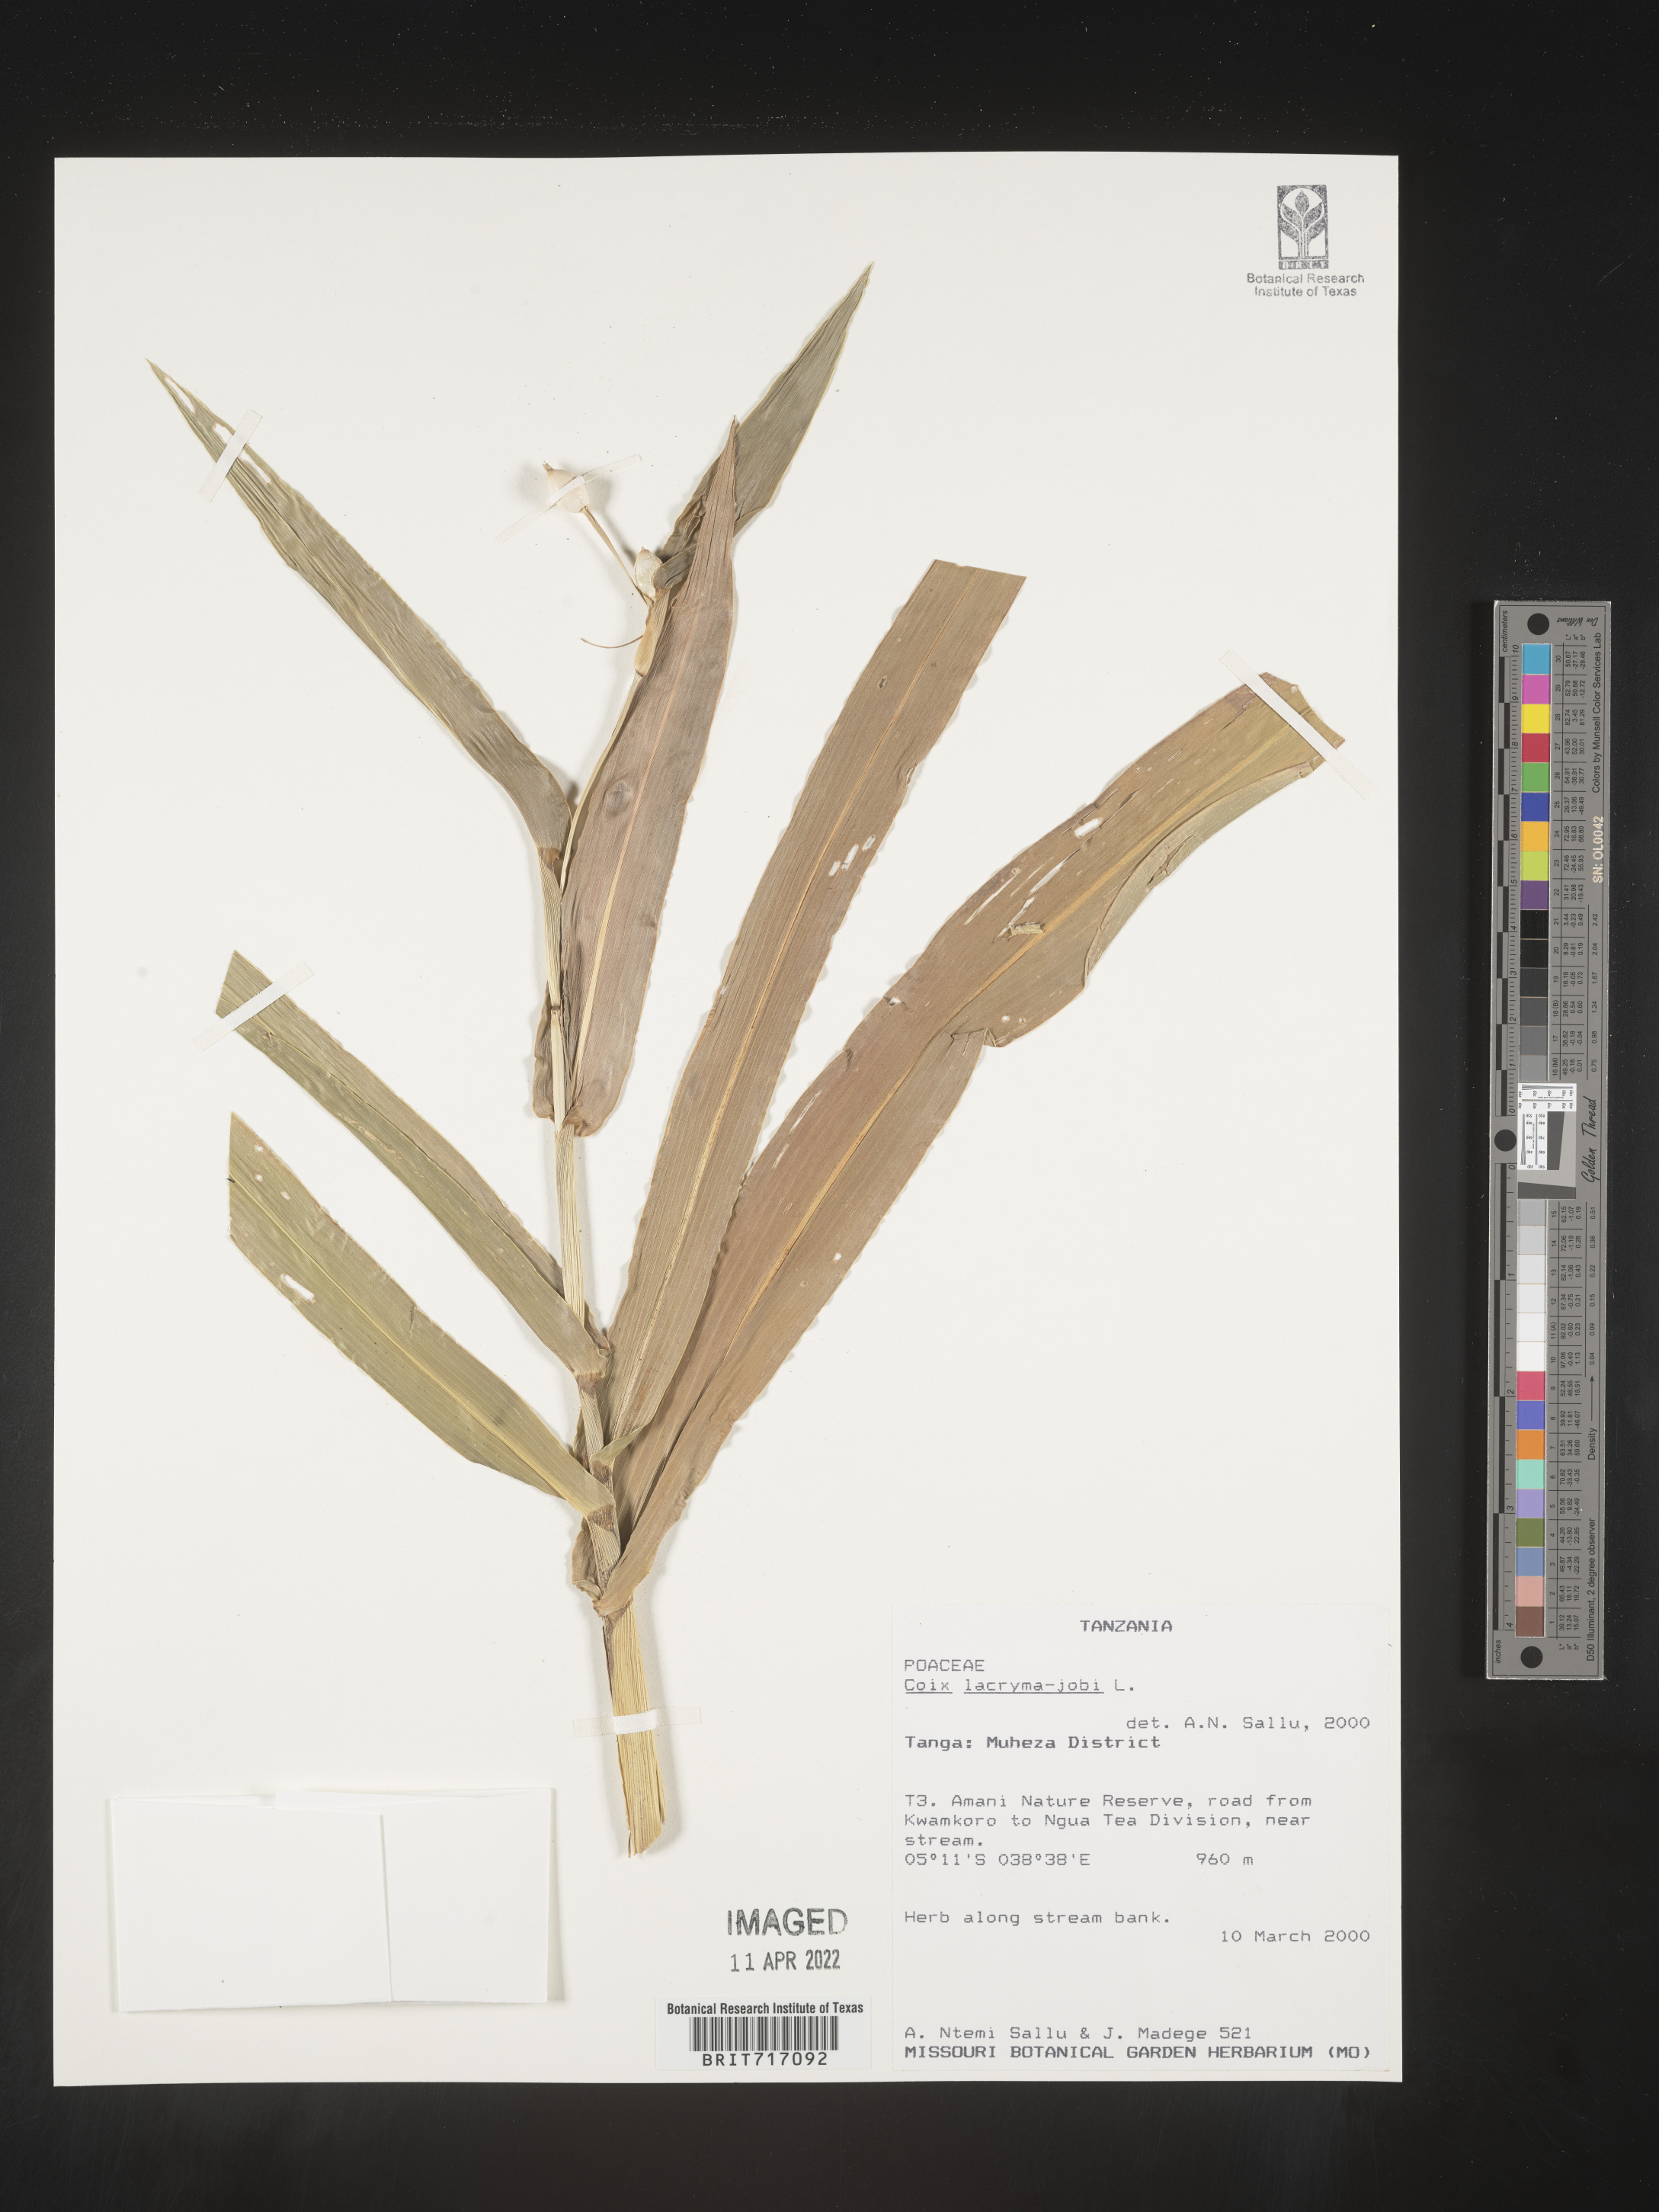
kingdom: Plantae
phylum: Tracheophyta
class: Liliopsida
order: Poales
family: Poaceae
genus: Coix
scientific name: Coix
